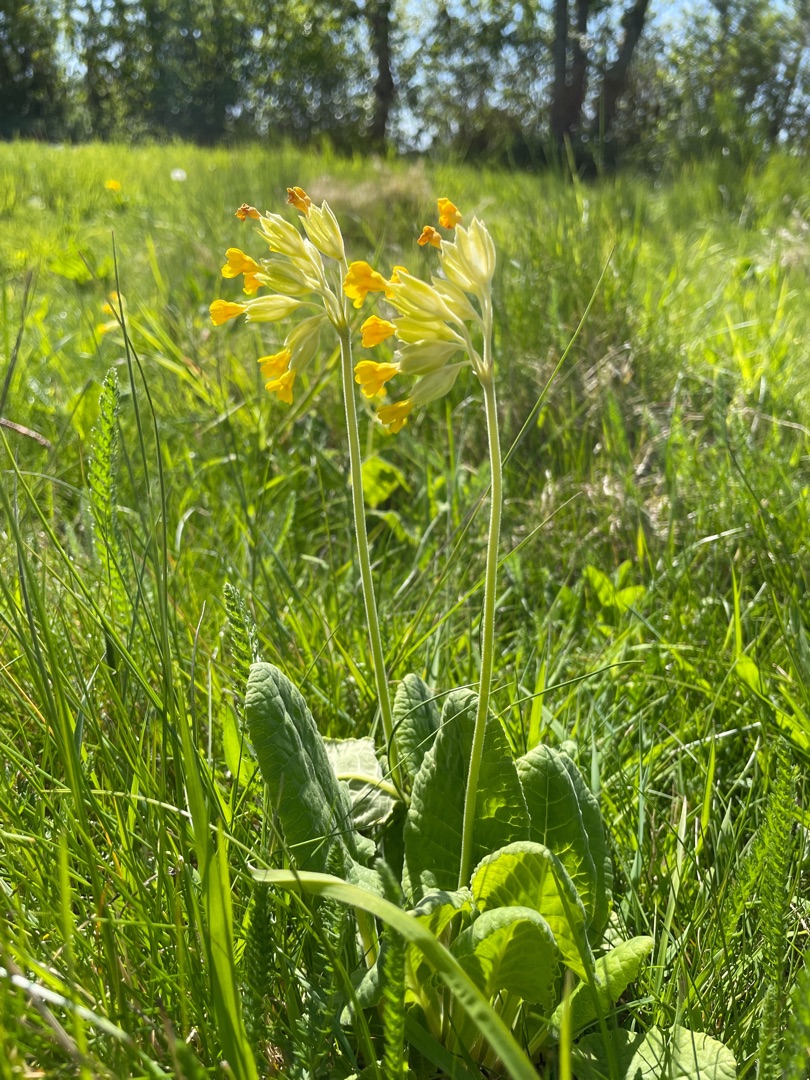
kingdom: Plantae
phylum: Tracheophyta
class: Magnoliopsida
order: Ericales
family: Primulaceae
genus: Primula
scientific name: Primula veris
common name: Hulkravet kodriver
